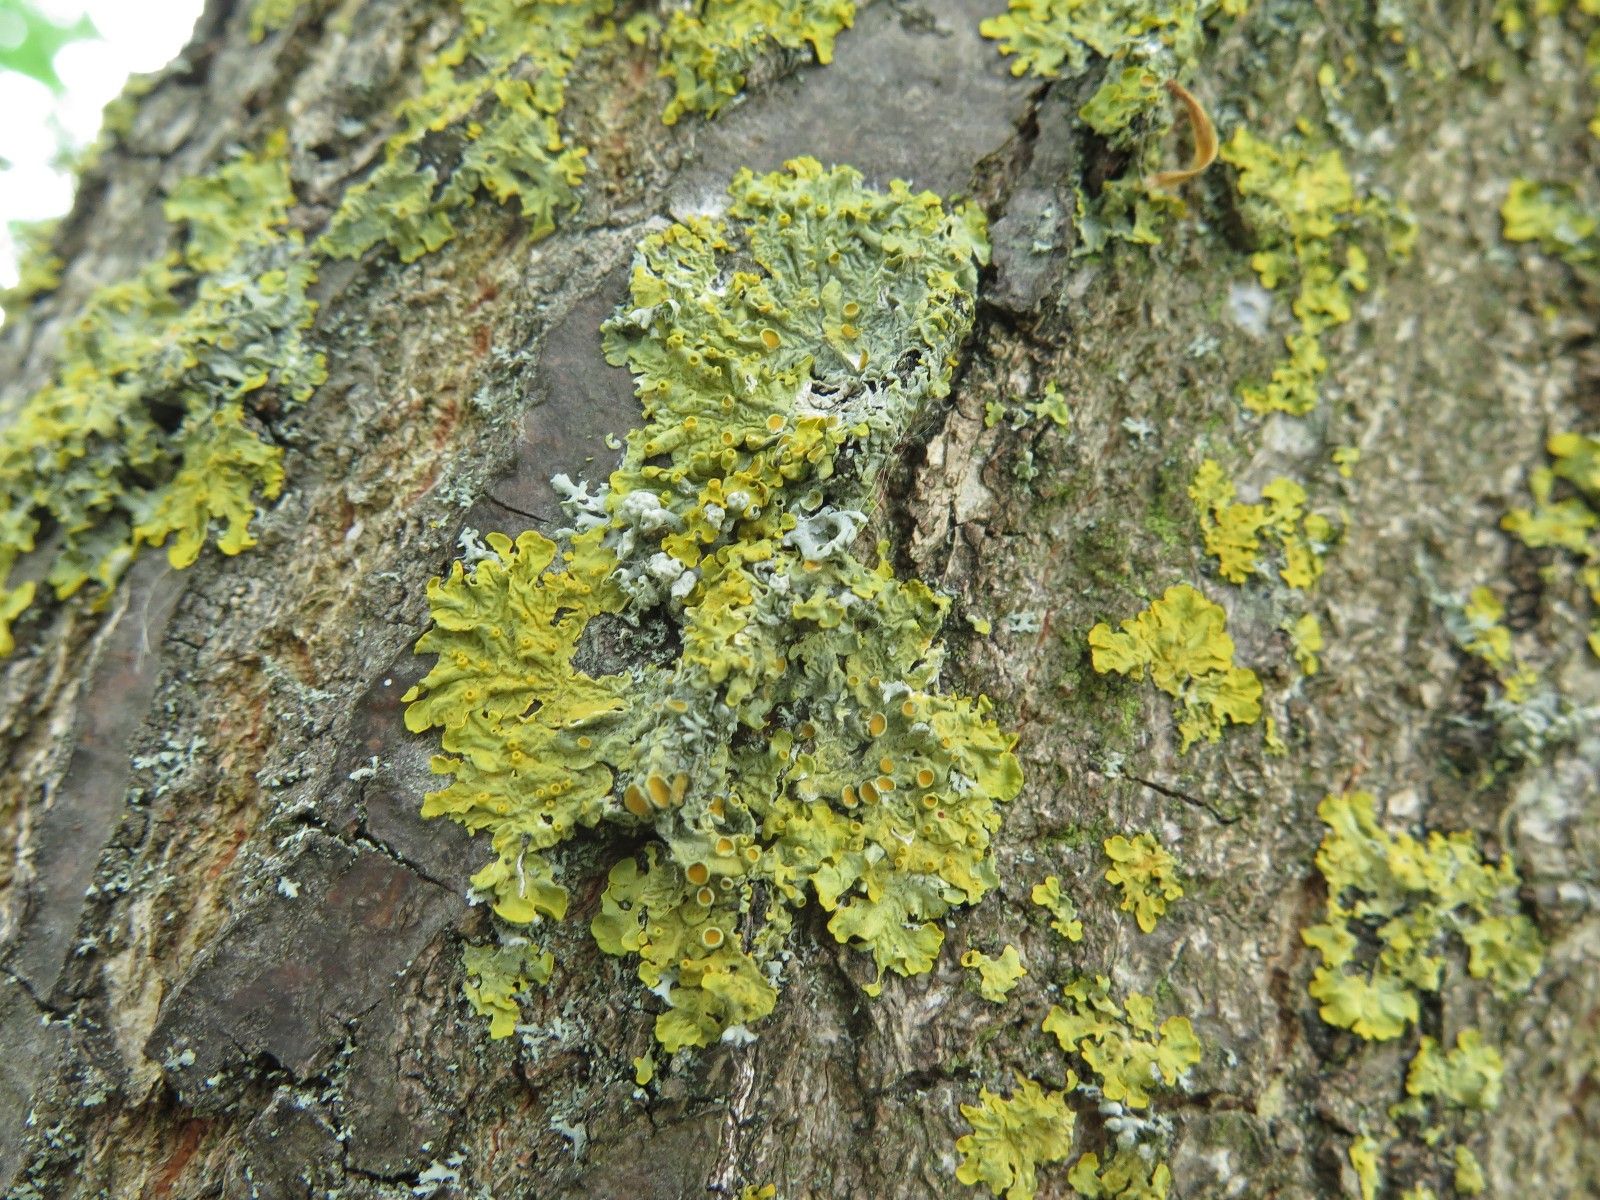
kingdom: Fungi
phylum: Ascomycota
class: Lecanoromycetes
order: Teloschistales
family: Teloschistaceae
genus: Xanthoria
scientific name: Xanthoria parietina
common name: almindelig væggelav
